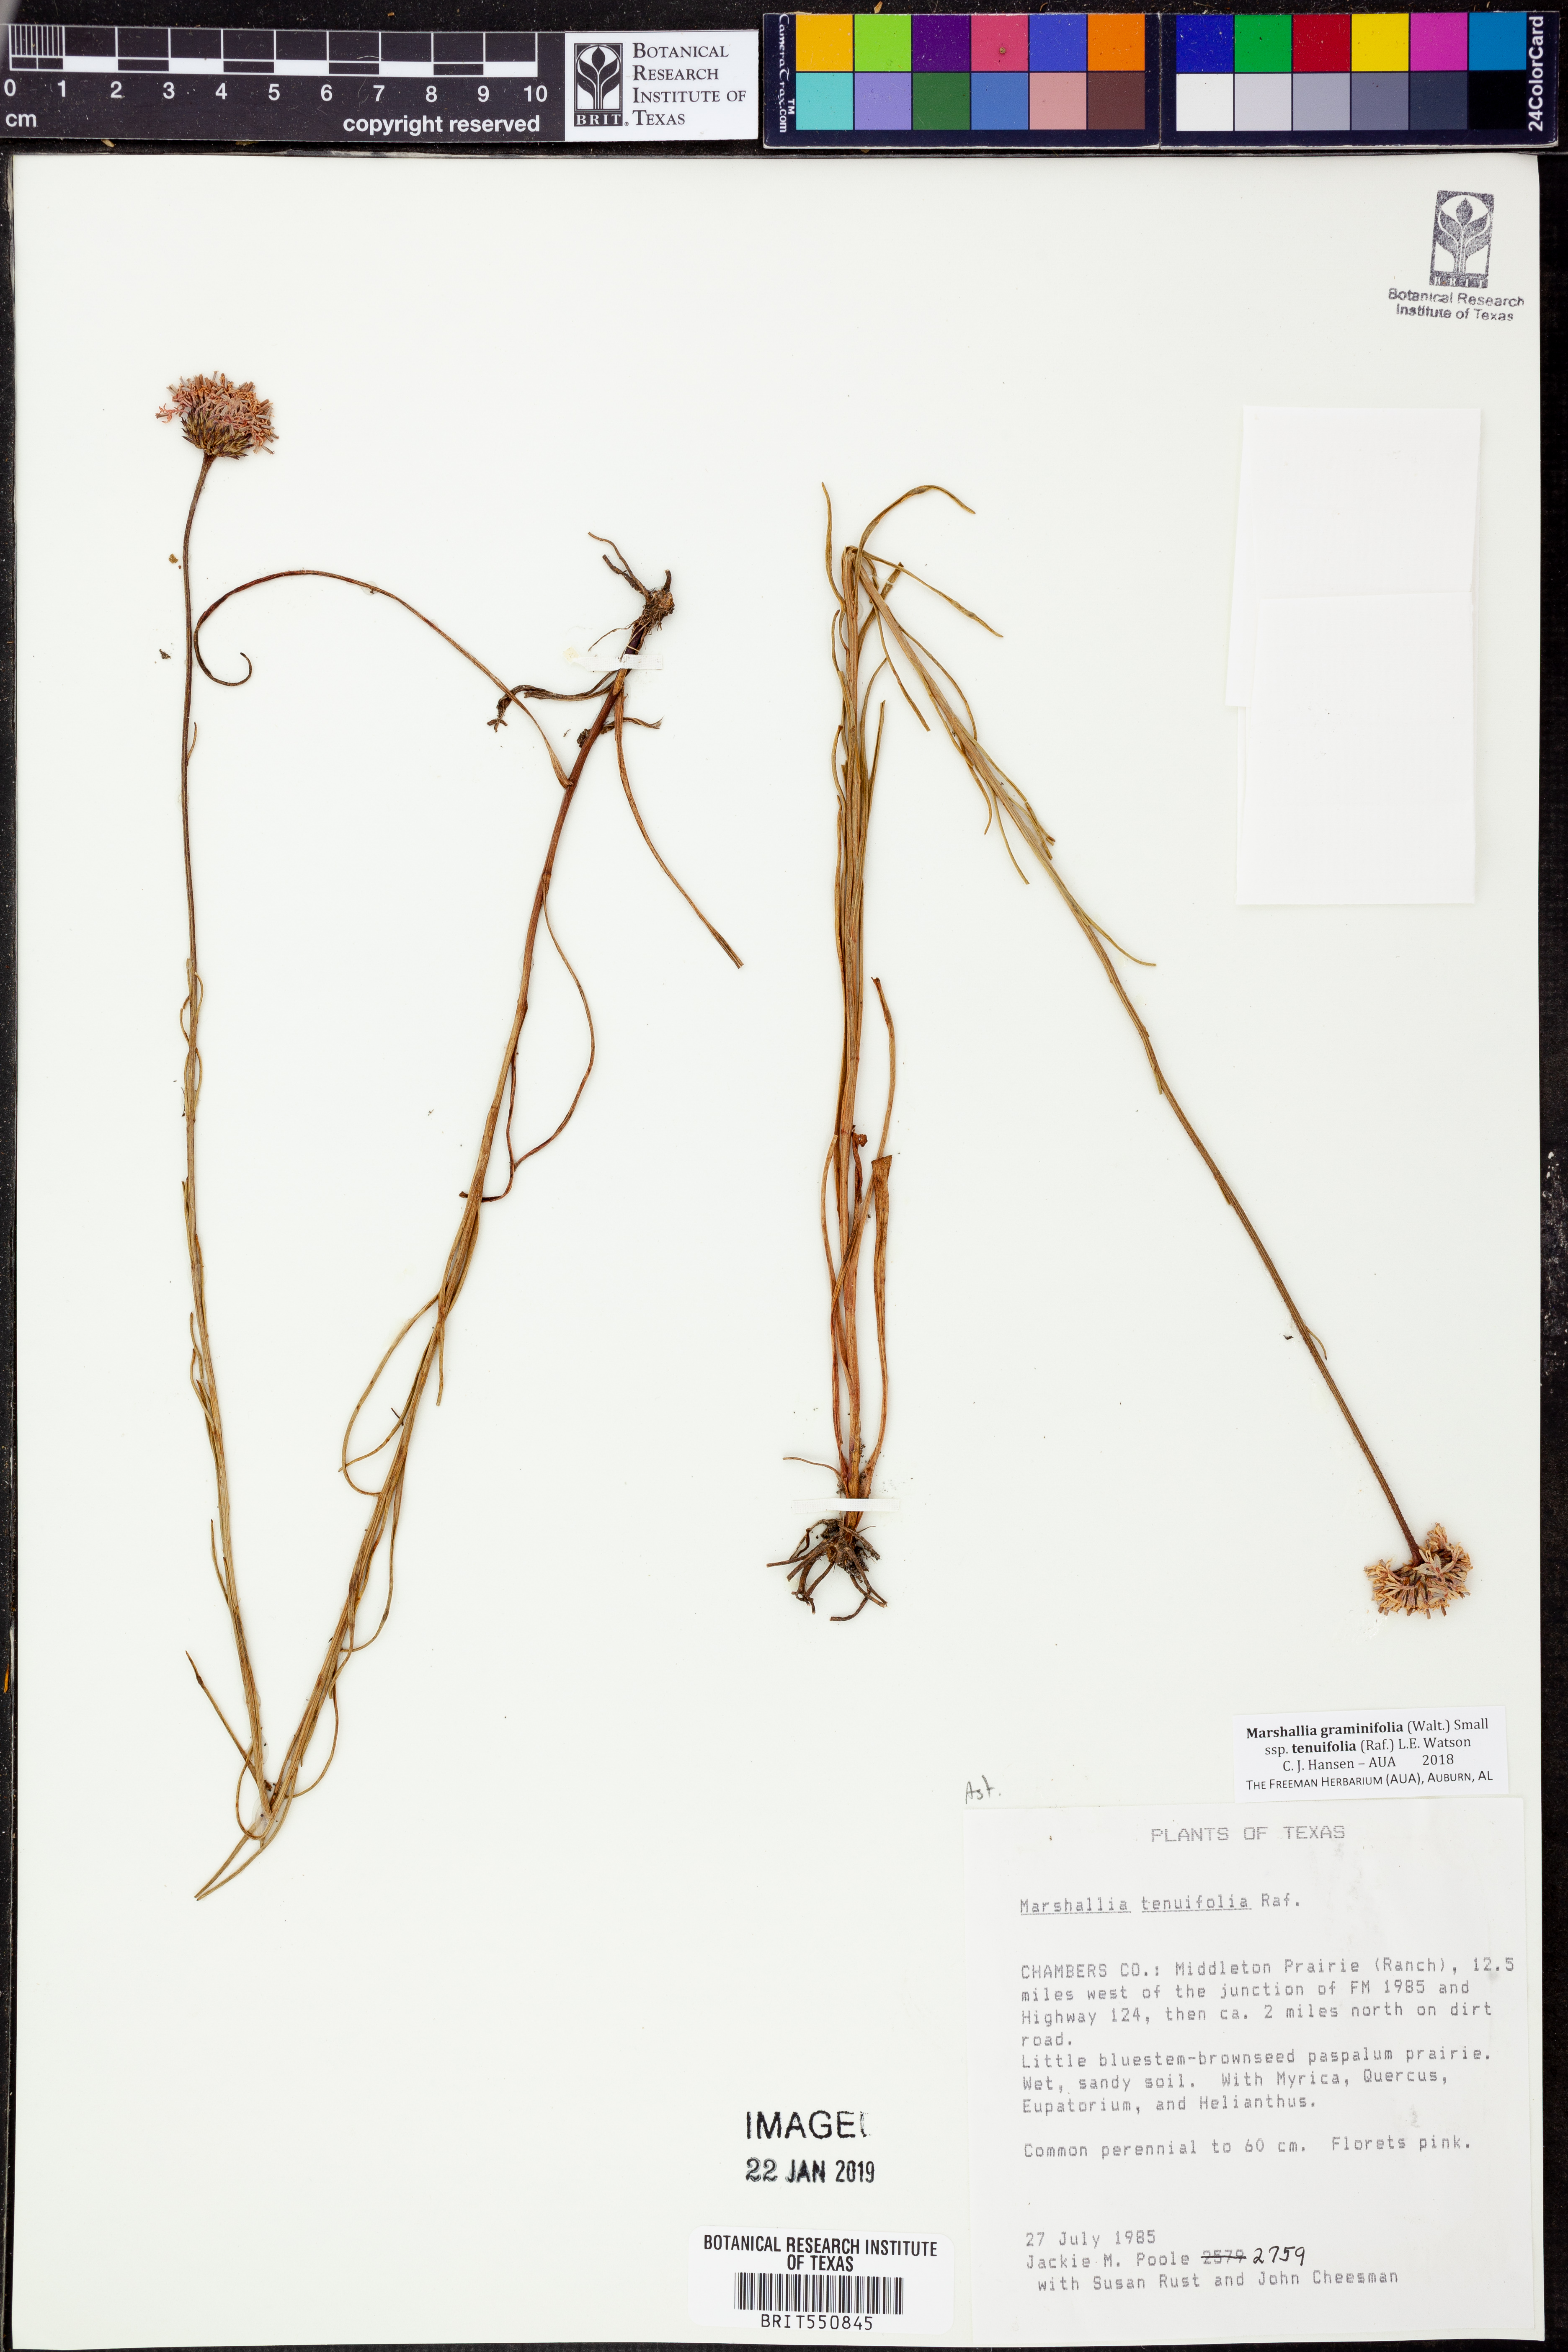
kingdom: Plantae
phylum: Tracheophyta
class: Magnoliopsida
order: Asterales
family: Asteraceae
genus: Marshallia
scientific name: Marshallia graminifolia
